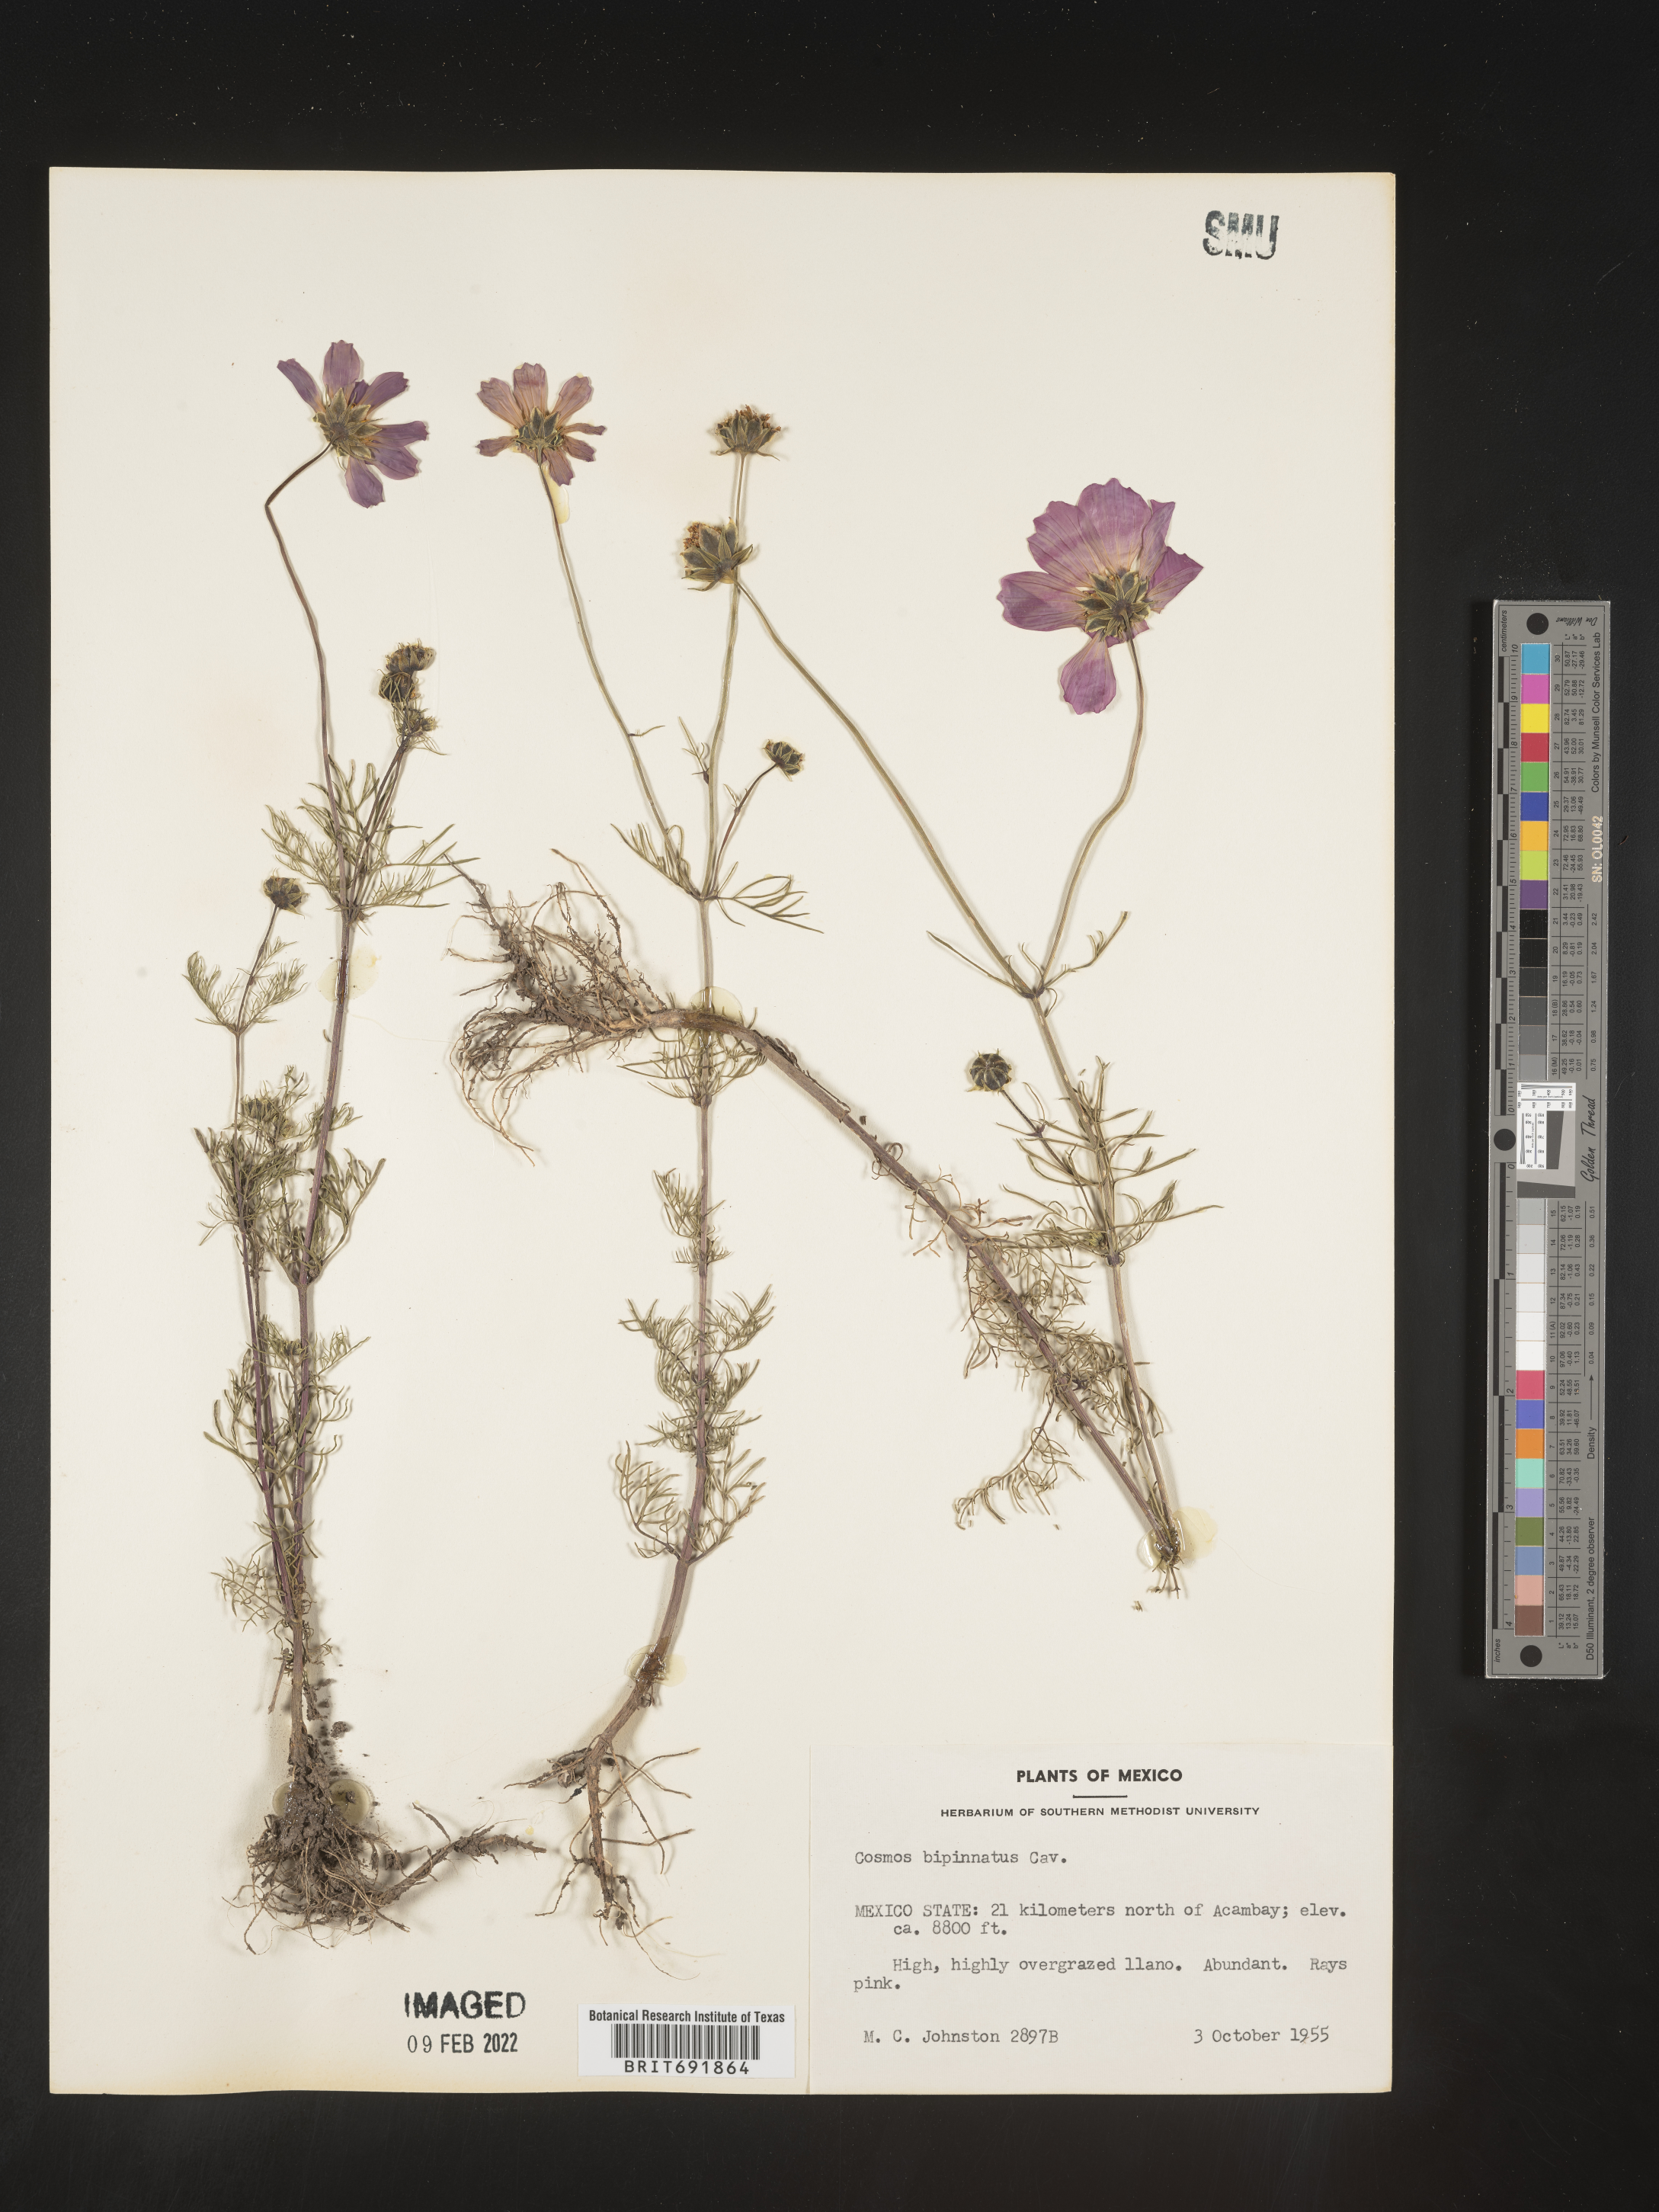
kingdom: Plantae
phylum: Tracheophyta
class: Magnoliopsida
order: Asterales
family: Asteraceae
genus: Cosmos
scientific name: Cosmos
